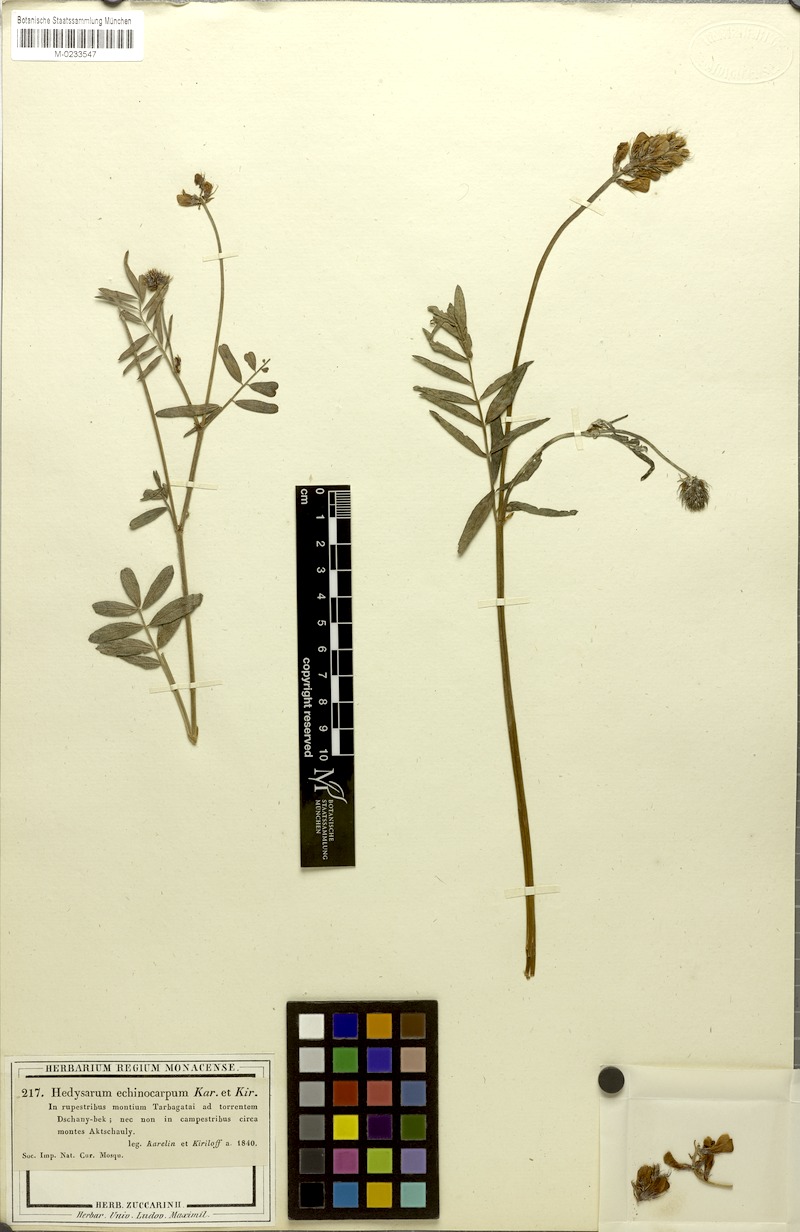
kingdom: Plantae
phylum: Tracheophyta
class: Magnoliopsida
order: Fabales
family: Fabaceae
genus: Hedysarum
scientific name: Hedysarum songaricum
